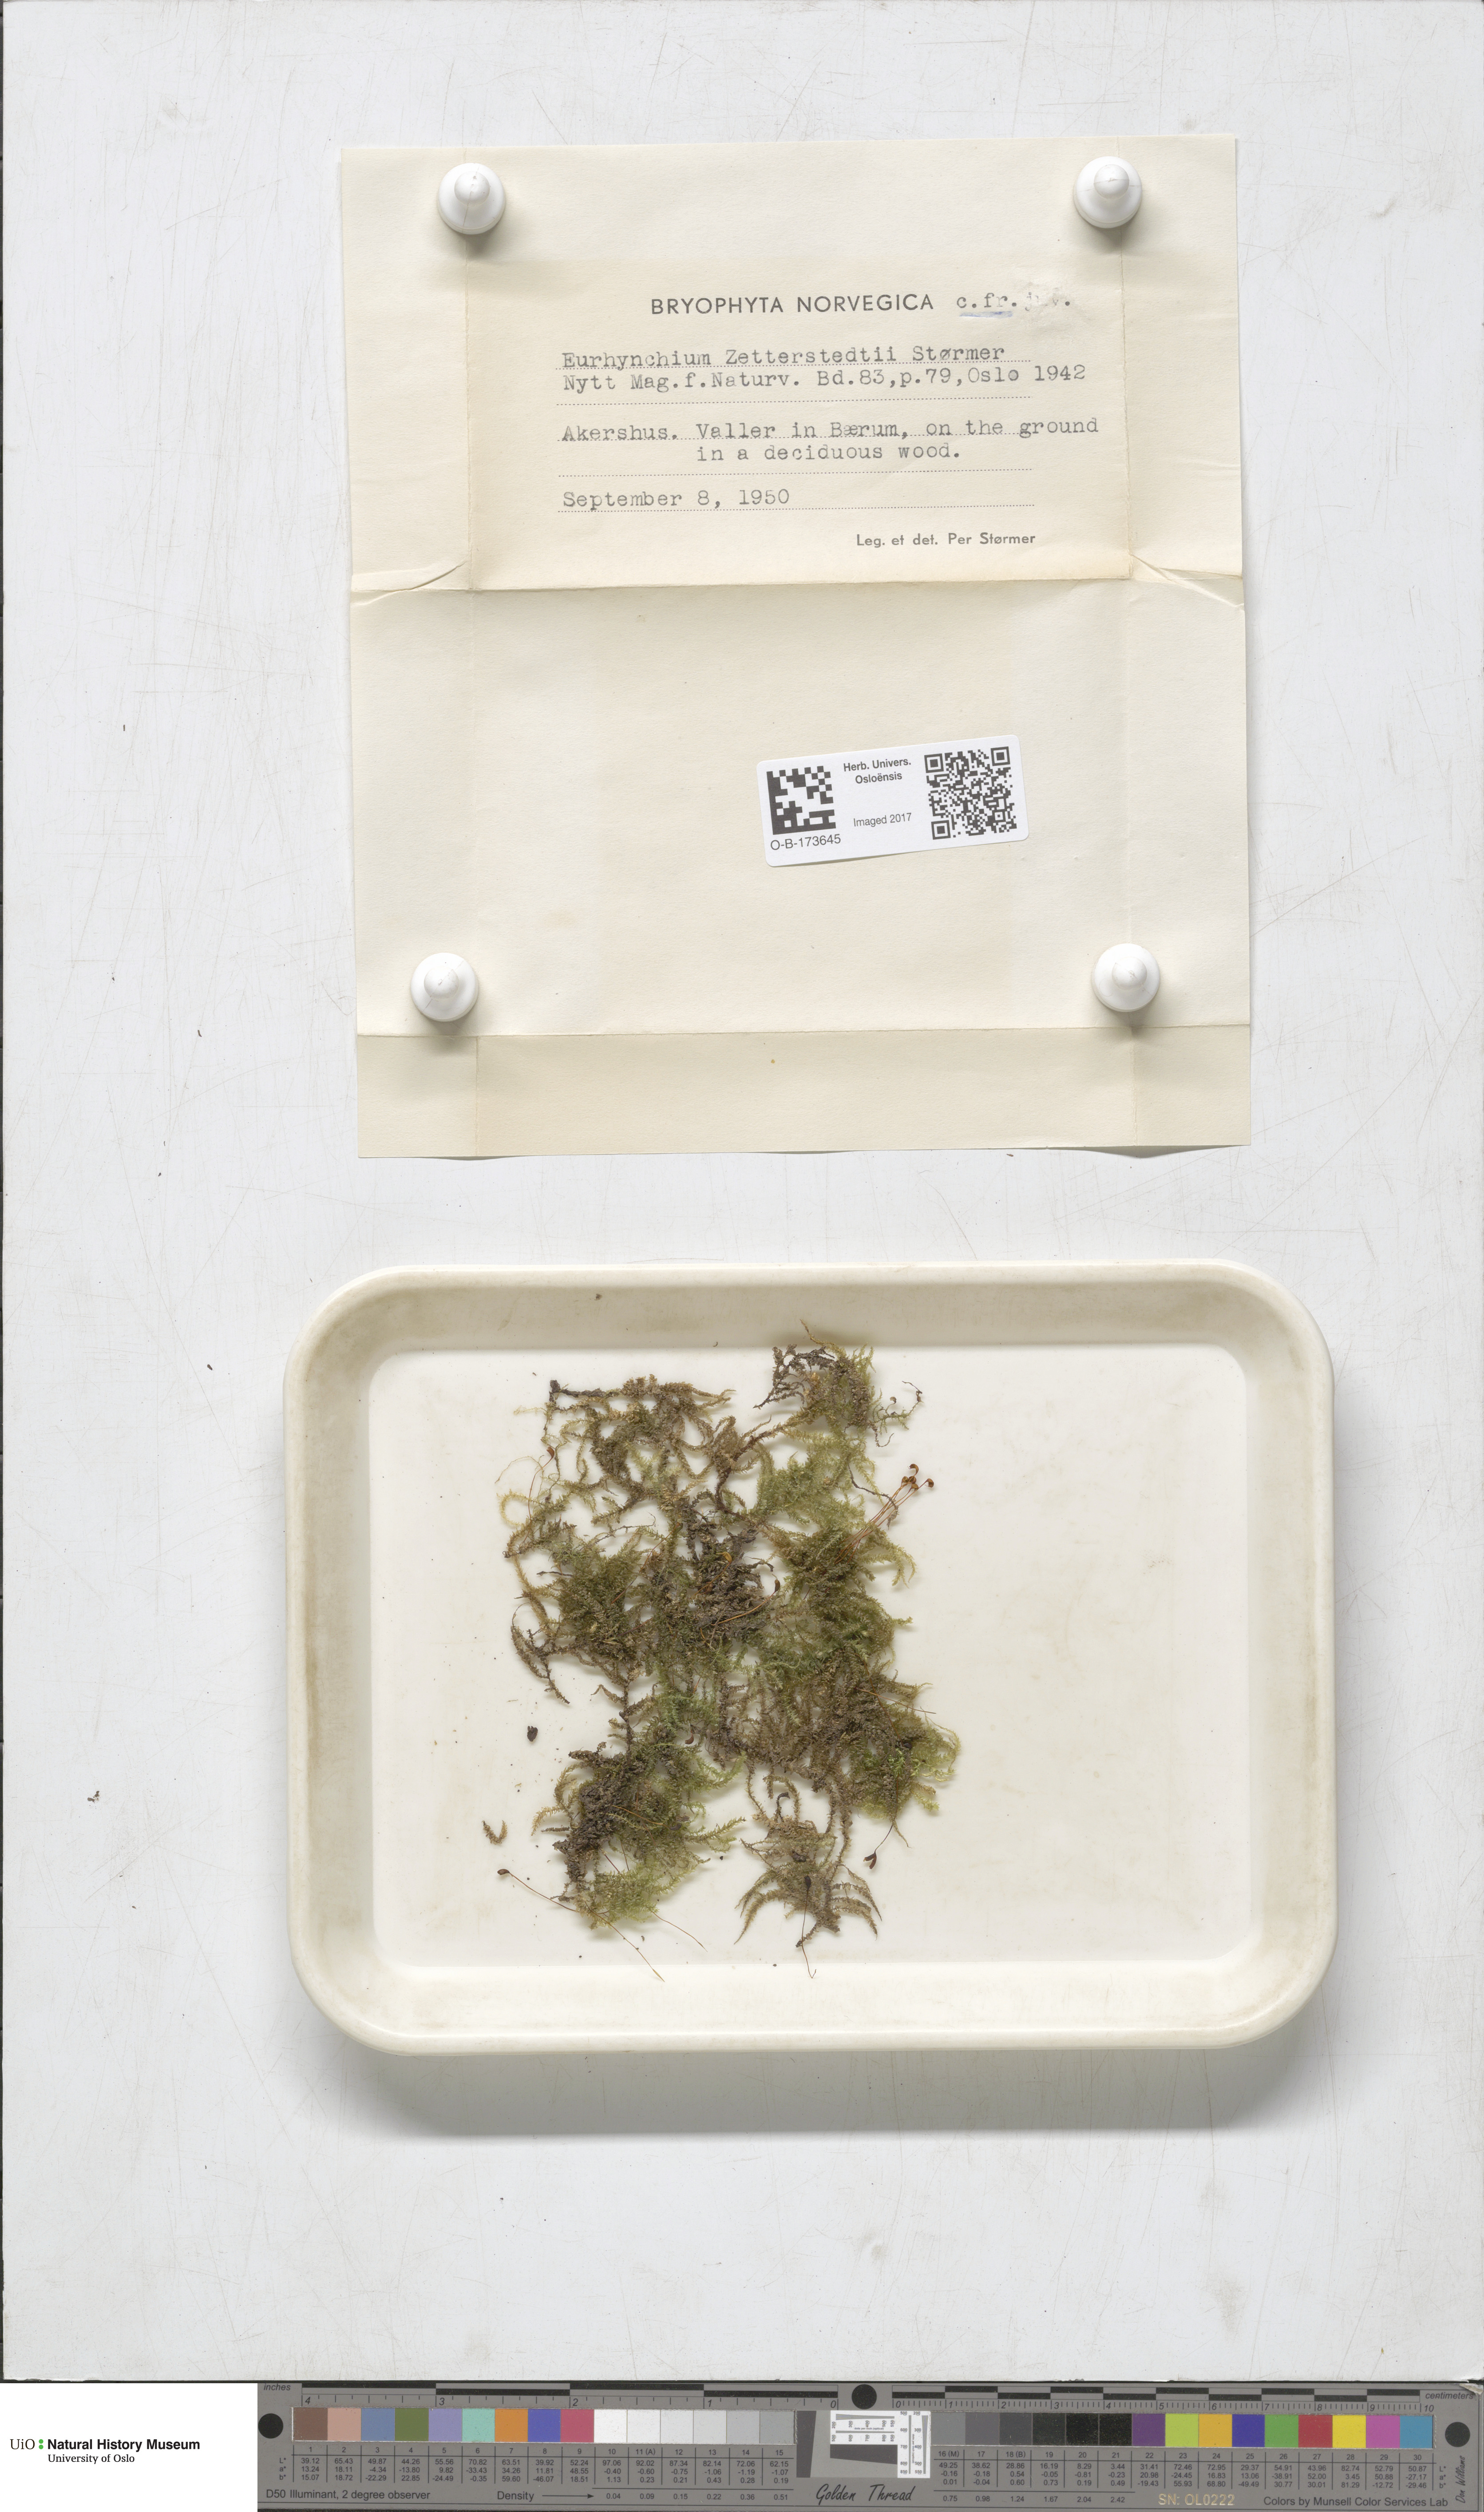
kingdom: Plantae
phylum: Bryophyta
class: Bryopsida
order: Hypnales
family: Brachytheciaceae
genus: Eurhynchium
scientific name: Eurhynchium angustirete
